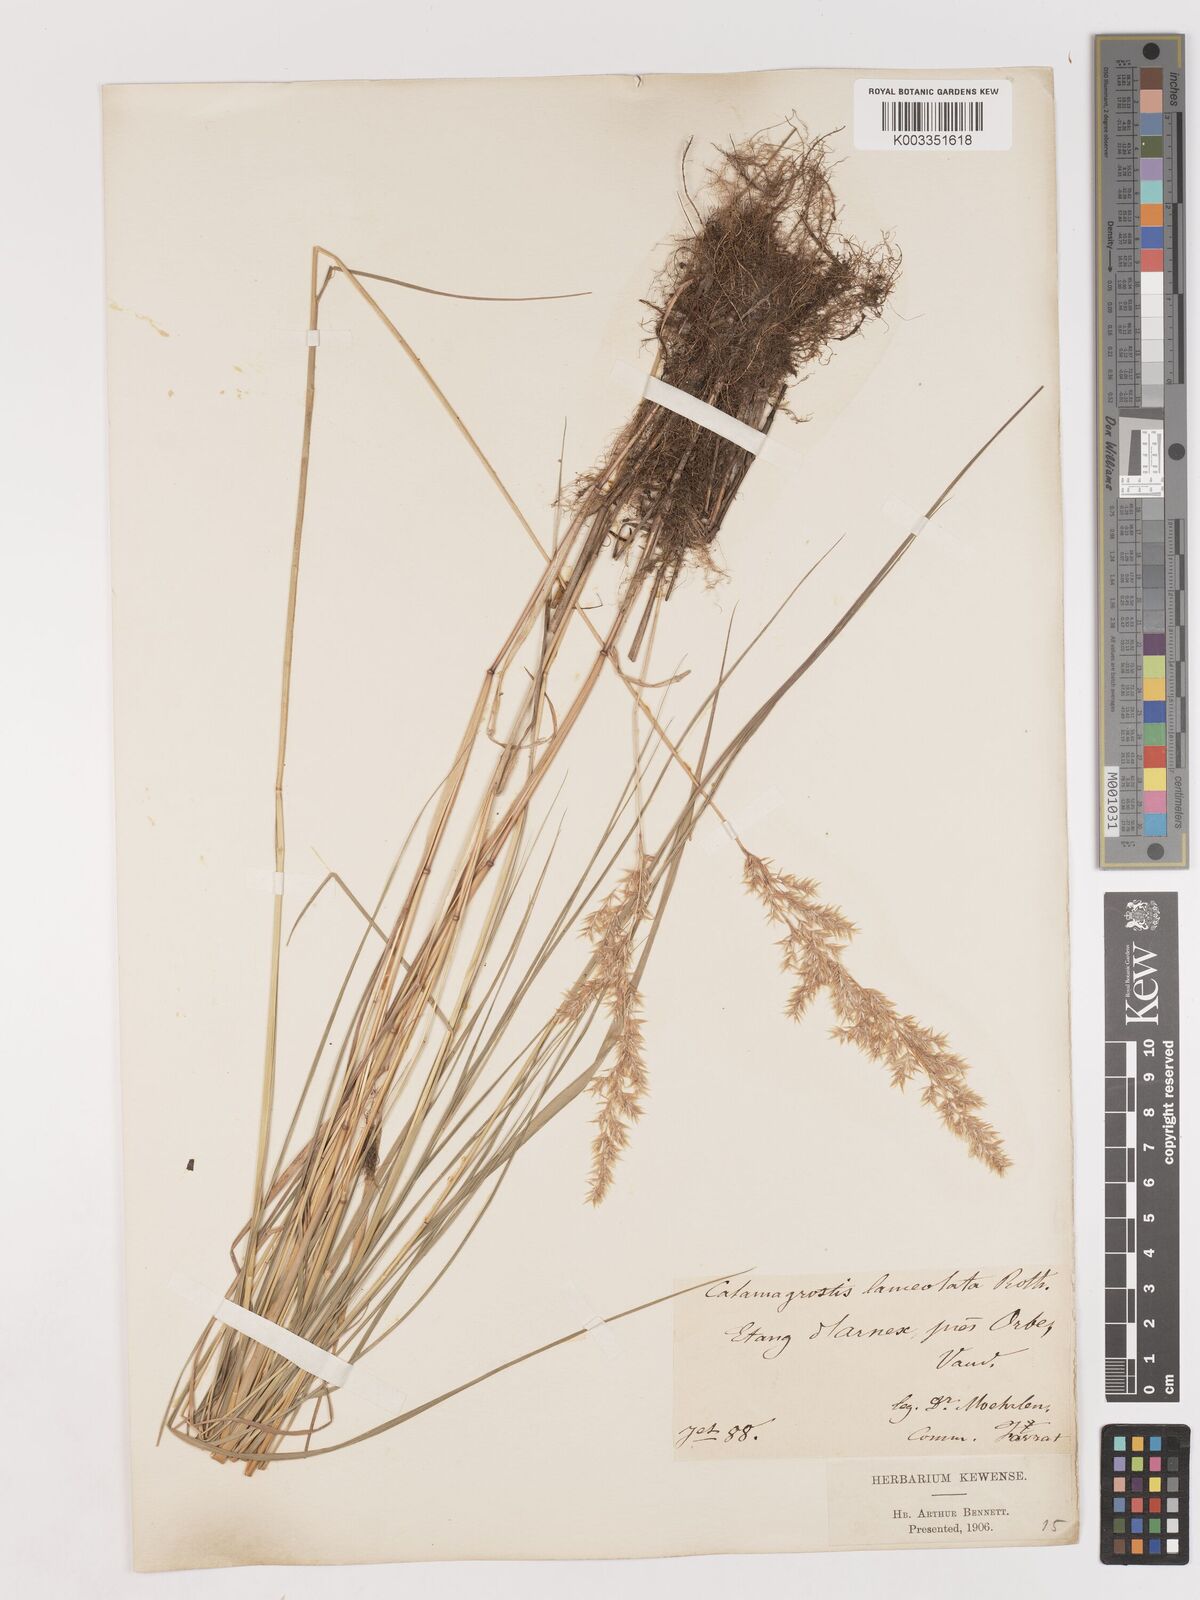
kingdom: Plantae
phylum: Tracheophyta
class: Liliopsida
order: Poales
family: Poaceae
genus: Calamagrostis
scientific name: Calamagrostis canescens
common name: Purple small-reed
